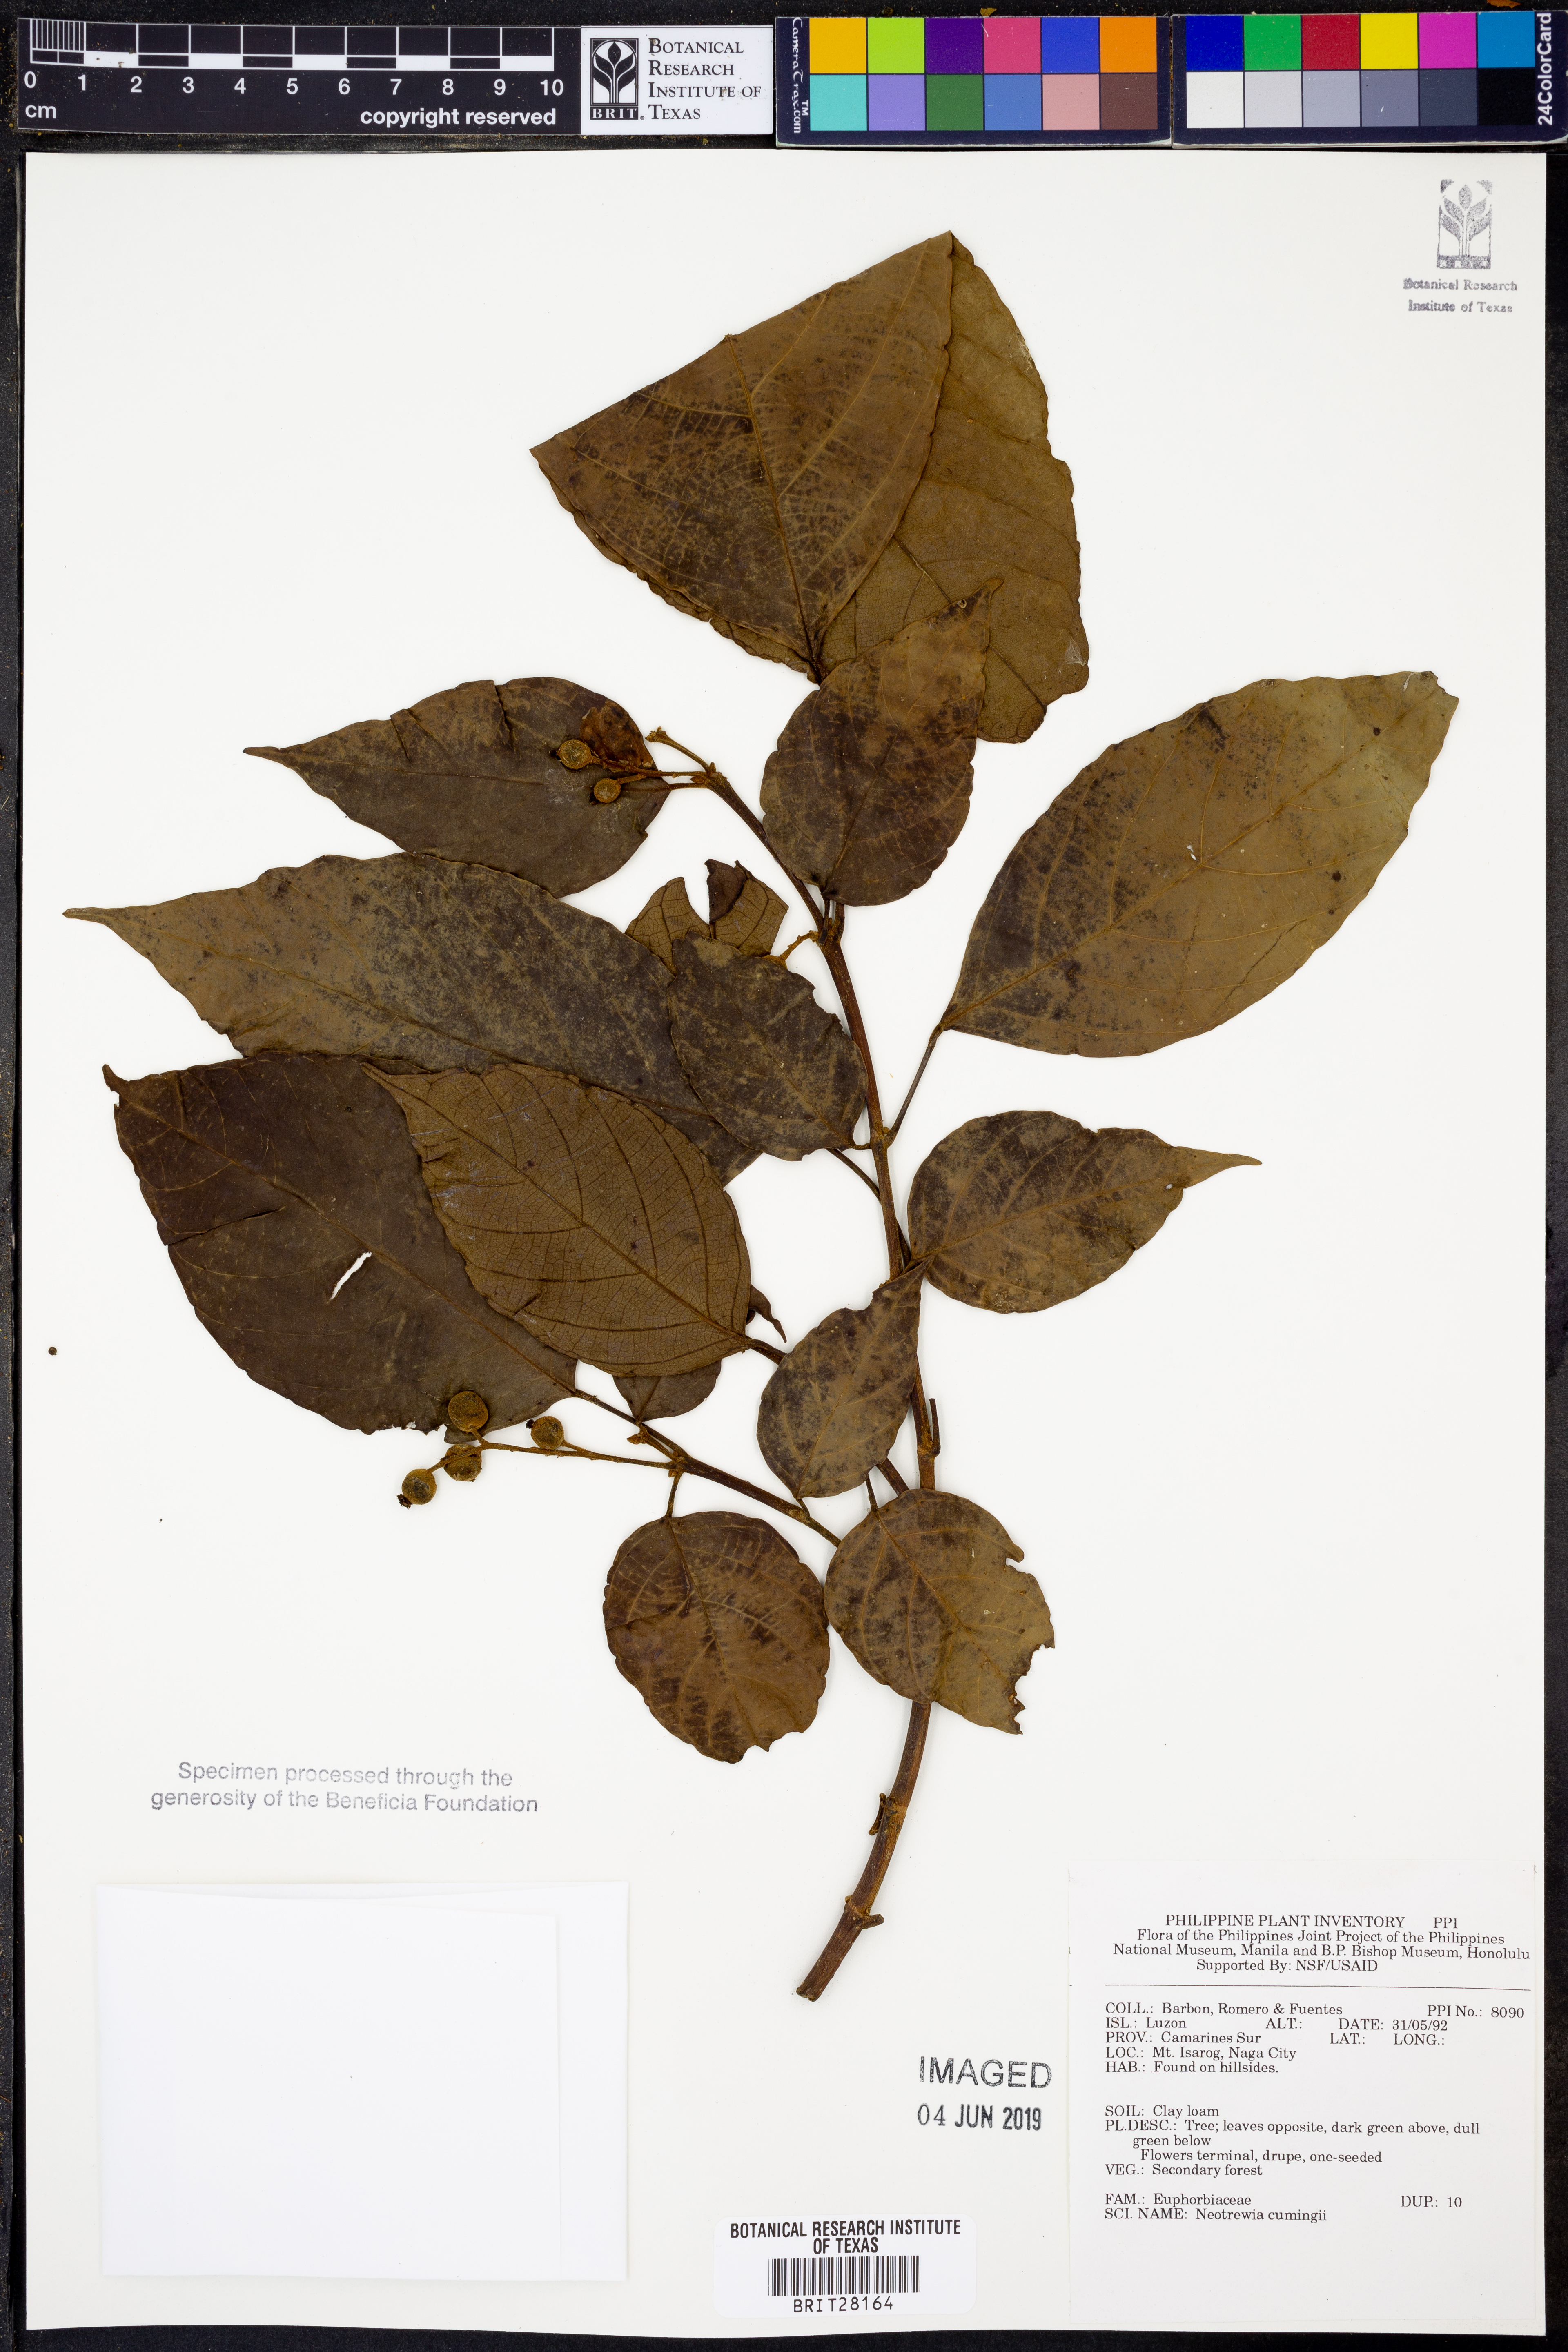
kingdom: Plantae
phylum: Tracheophyta
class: Magnoliopsida
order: Malpighiales
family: Euphorbiaceae
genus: Mallotus
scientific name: Mallotus cumingii
